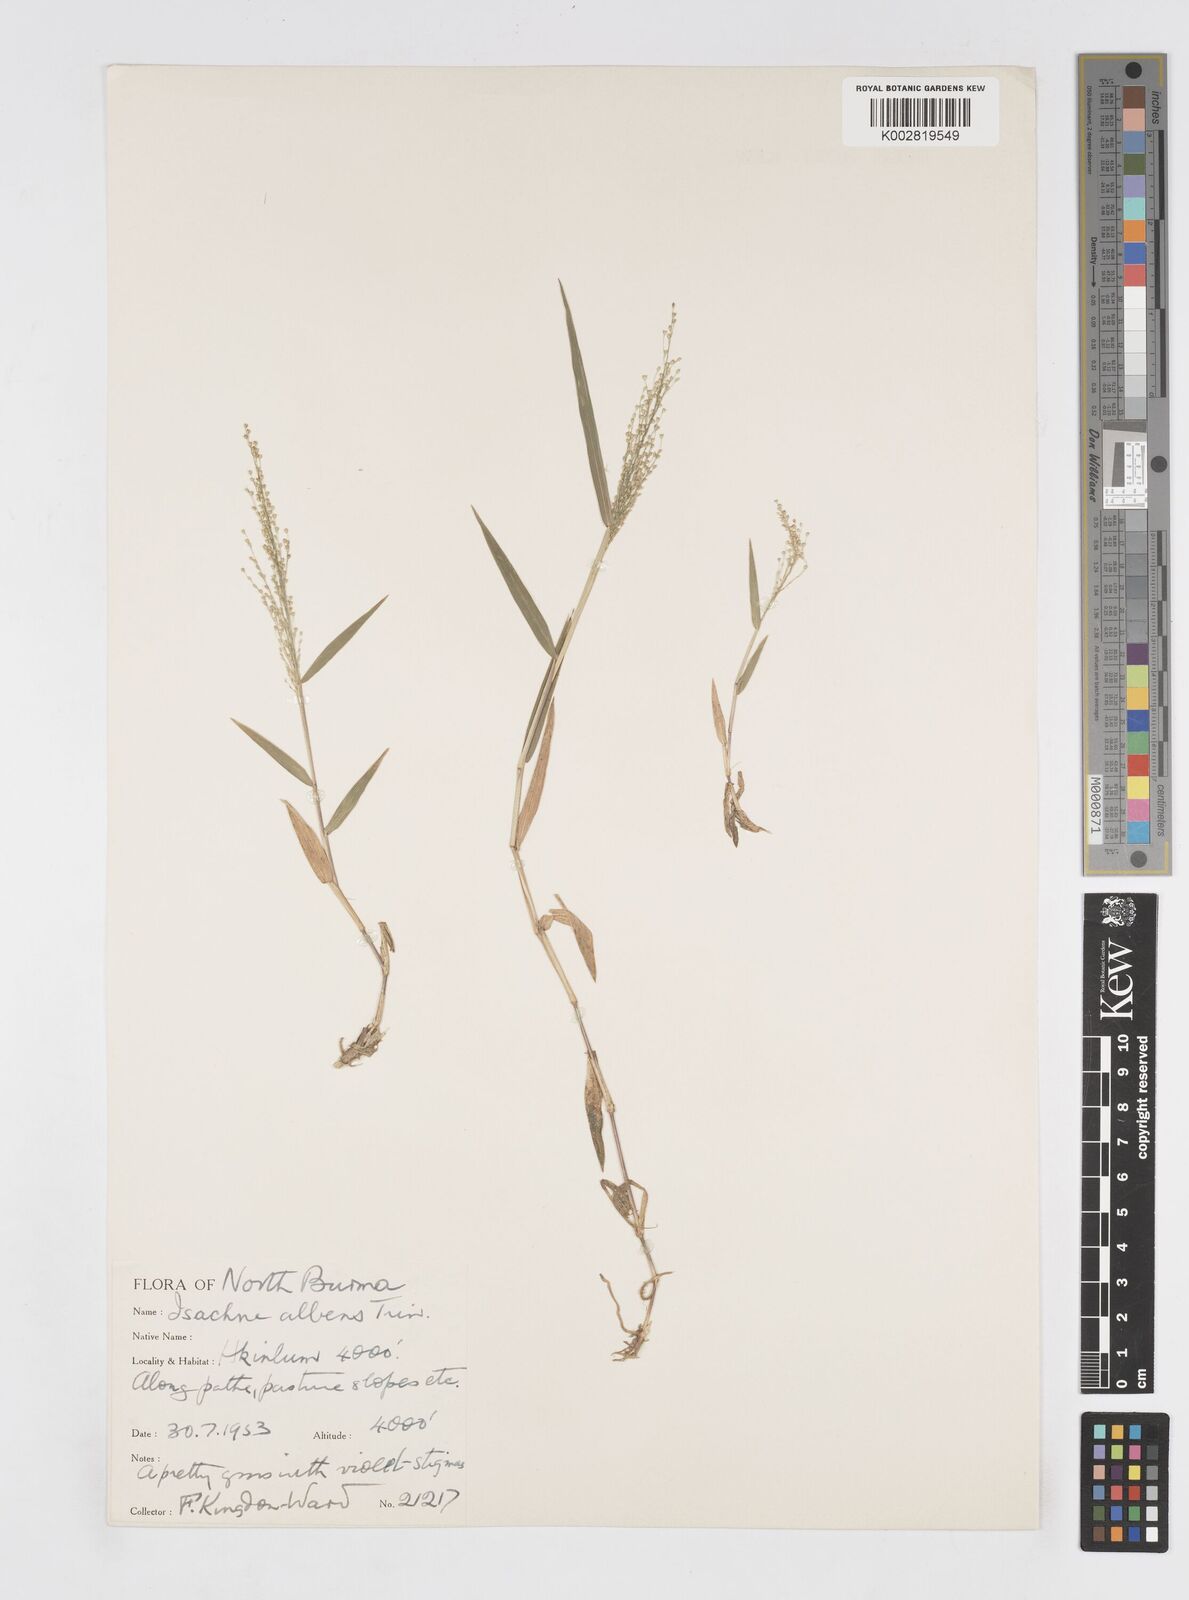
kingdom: Plantae
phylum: Tracheophyta
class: Liliopsida
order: Poales
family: Poaceae
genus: Isachne
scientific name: Isachne albens
